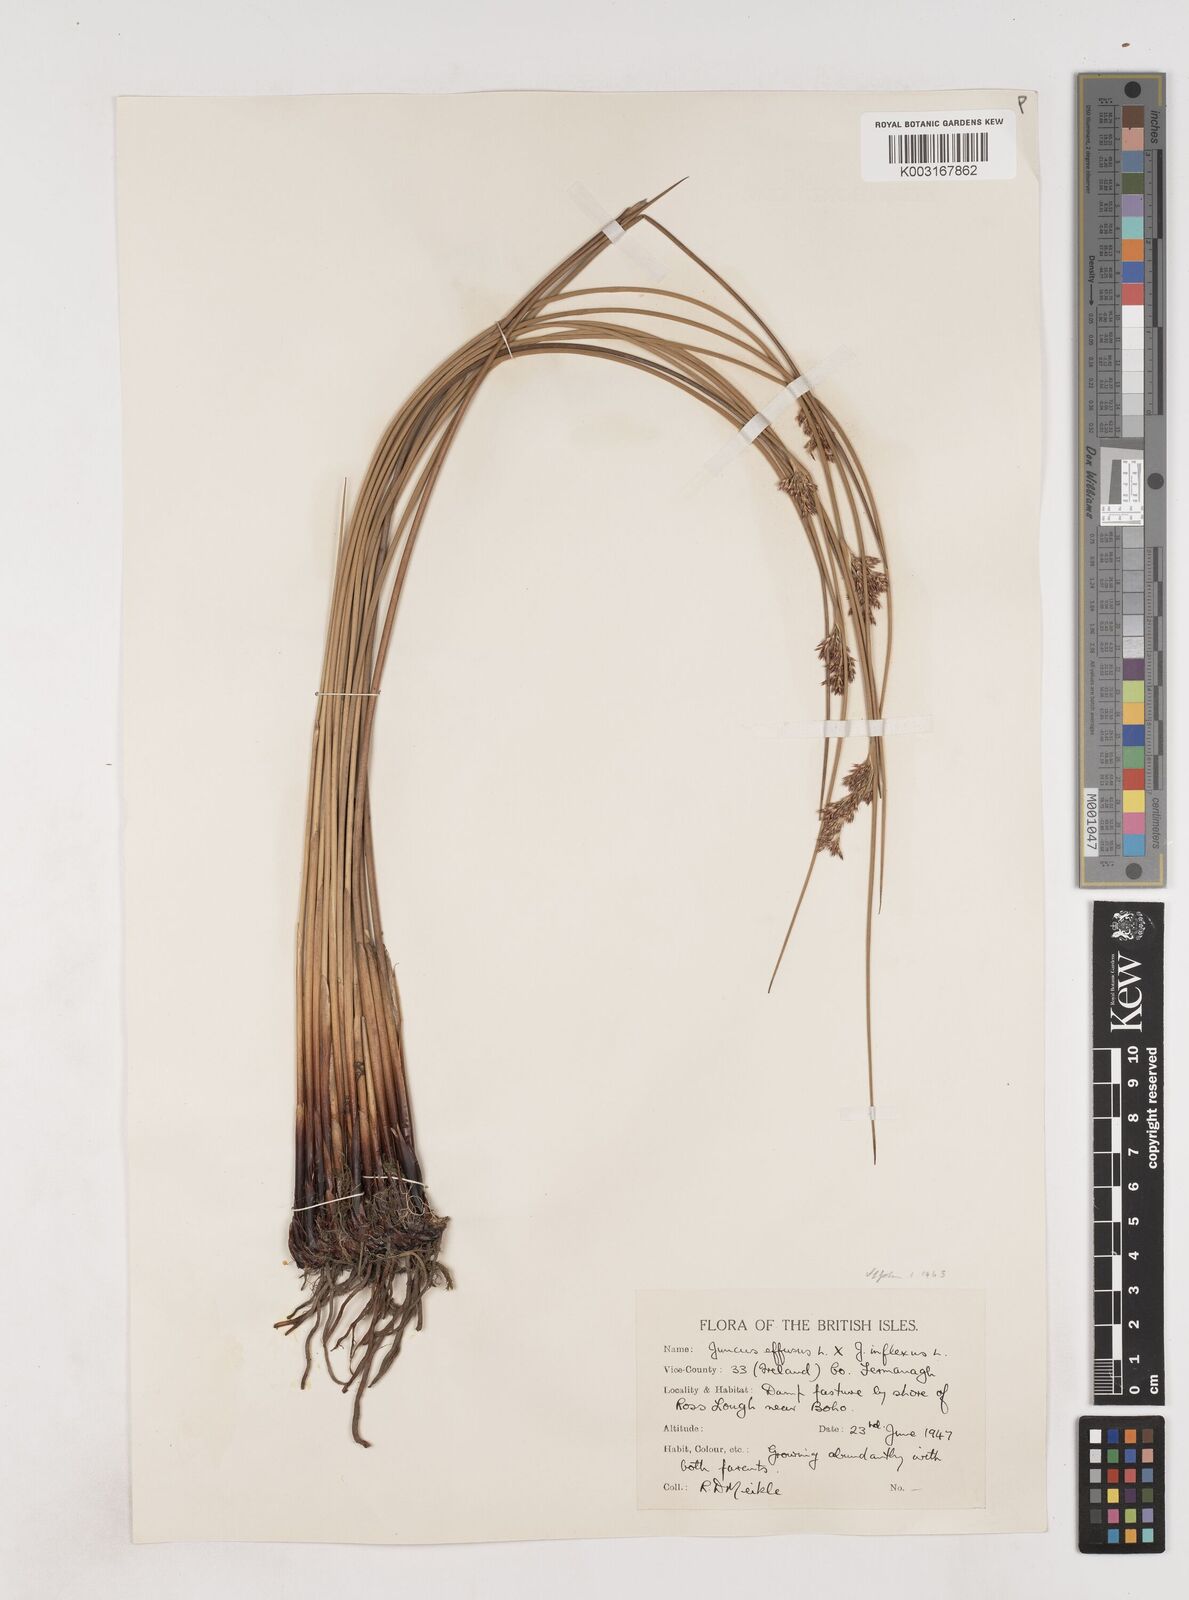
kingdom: Plantae
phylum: Tracheophyta
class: Liliopsida
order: Poales
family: Juncaceae
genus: Juncus
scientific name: Juncus effusus
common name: Soft rush
